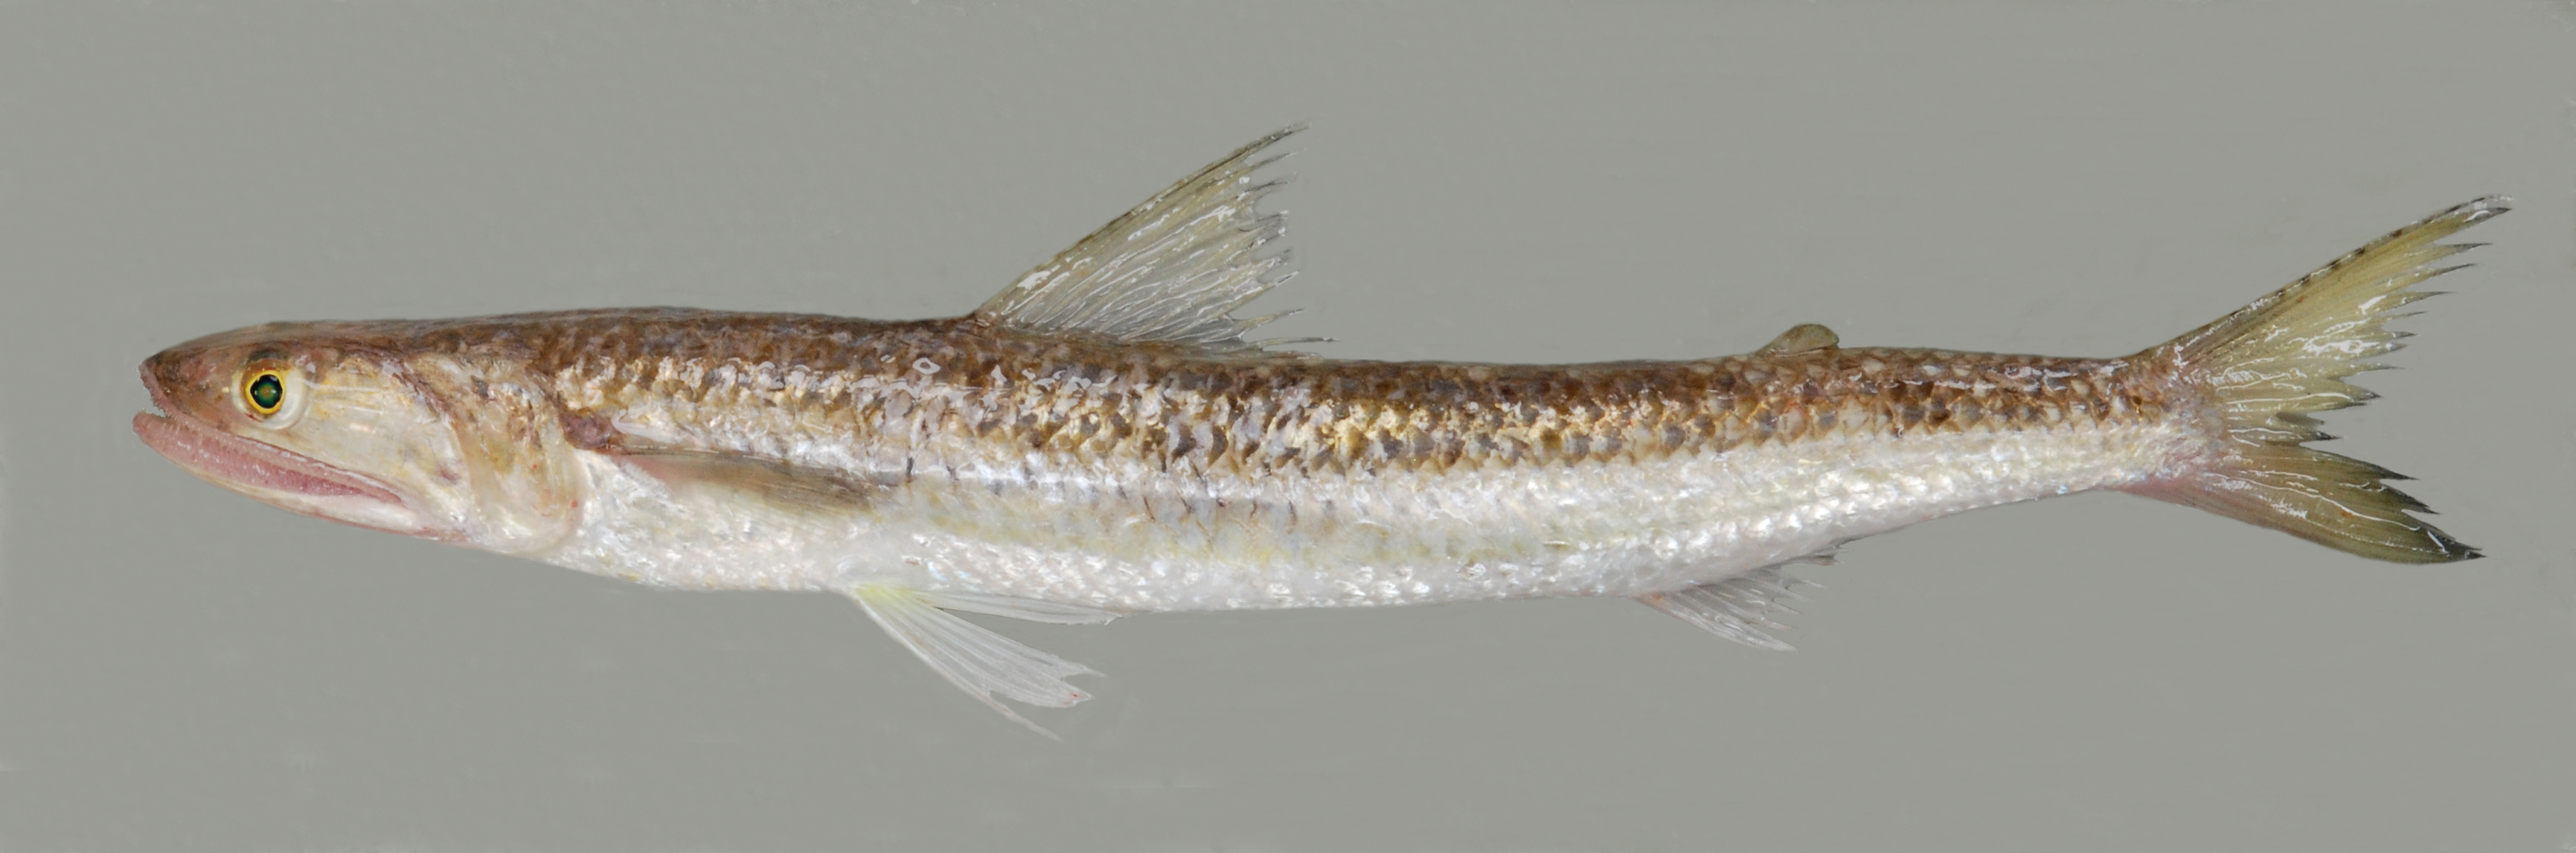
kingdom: Animalia
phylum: Chordata
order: Aulopiformes
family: Synodontidae
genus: Saurida
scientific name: Saurida
